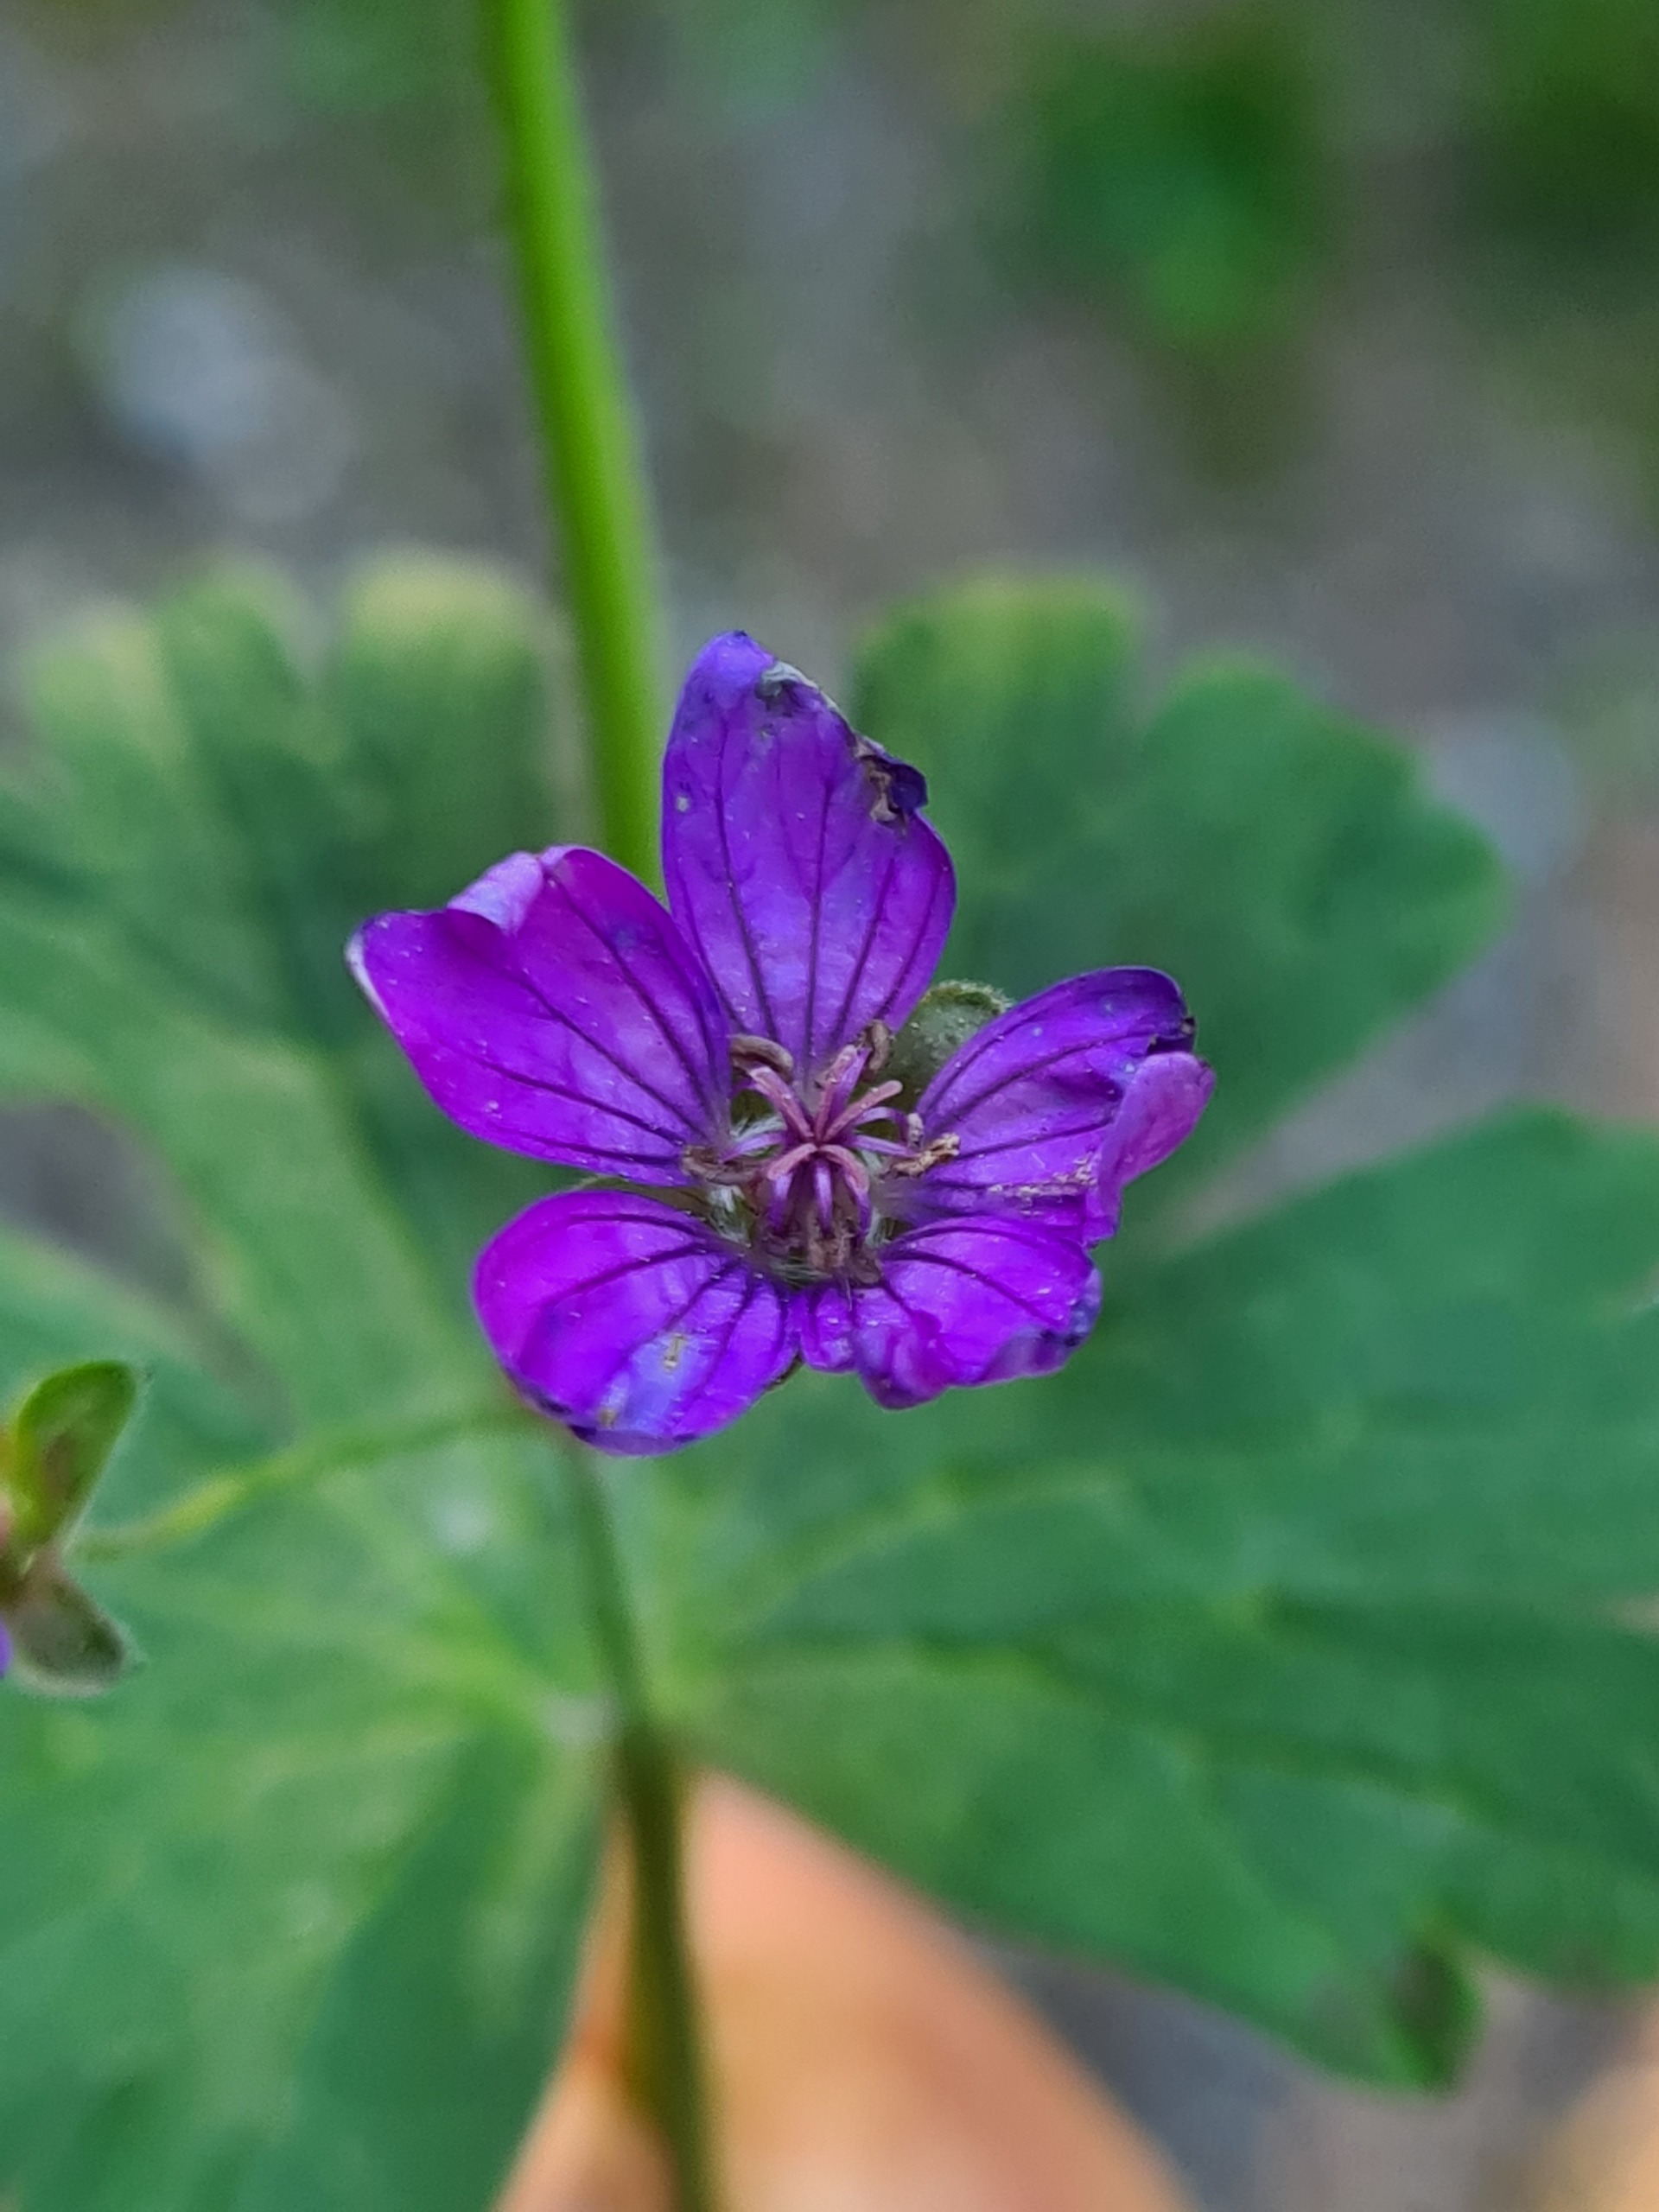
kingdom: Plantae
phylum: Tracheophyta
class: Magnoliopsida
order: Geraniales
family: Geraniaceae
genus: Geranium
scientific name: Geranium pyrenaicum
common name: Pyrenæisk storkenæb
